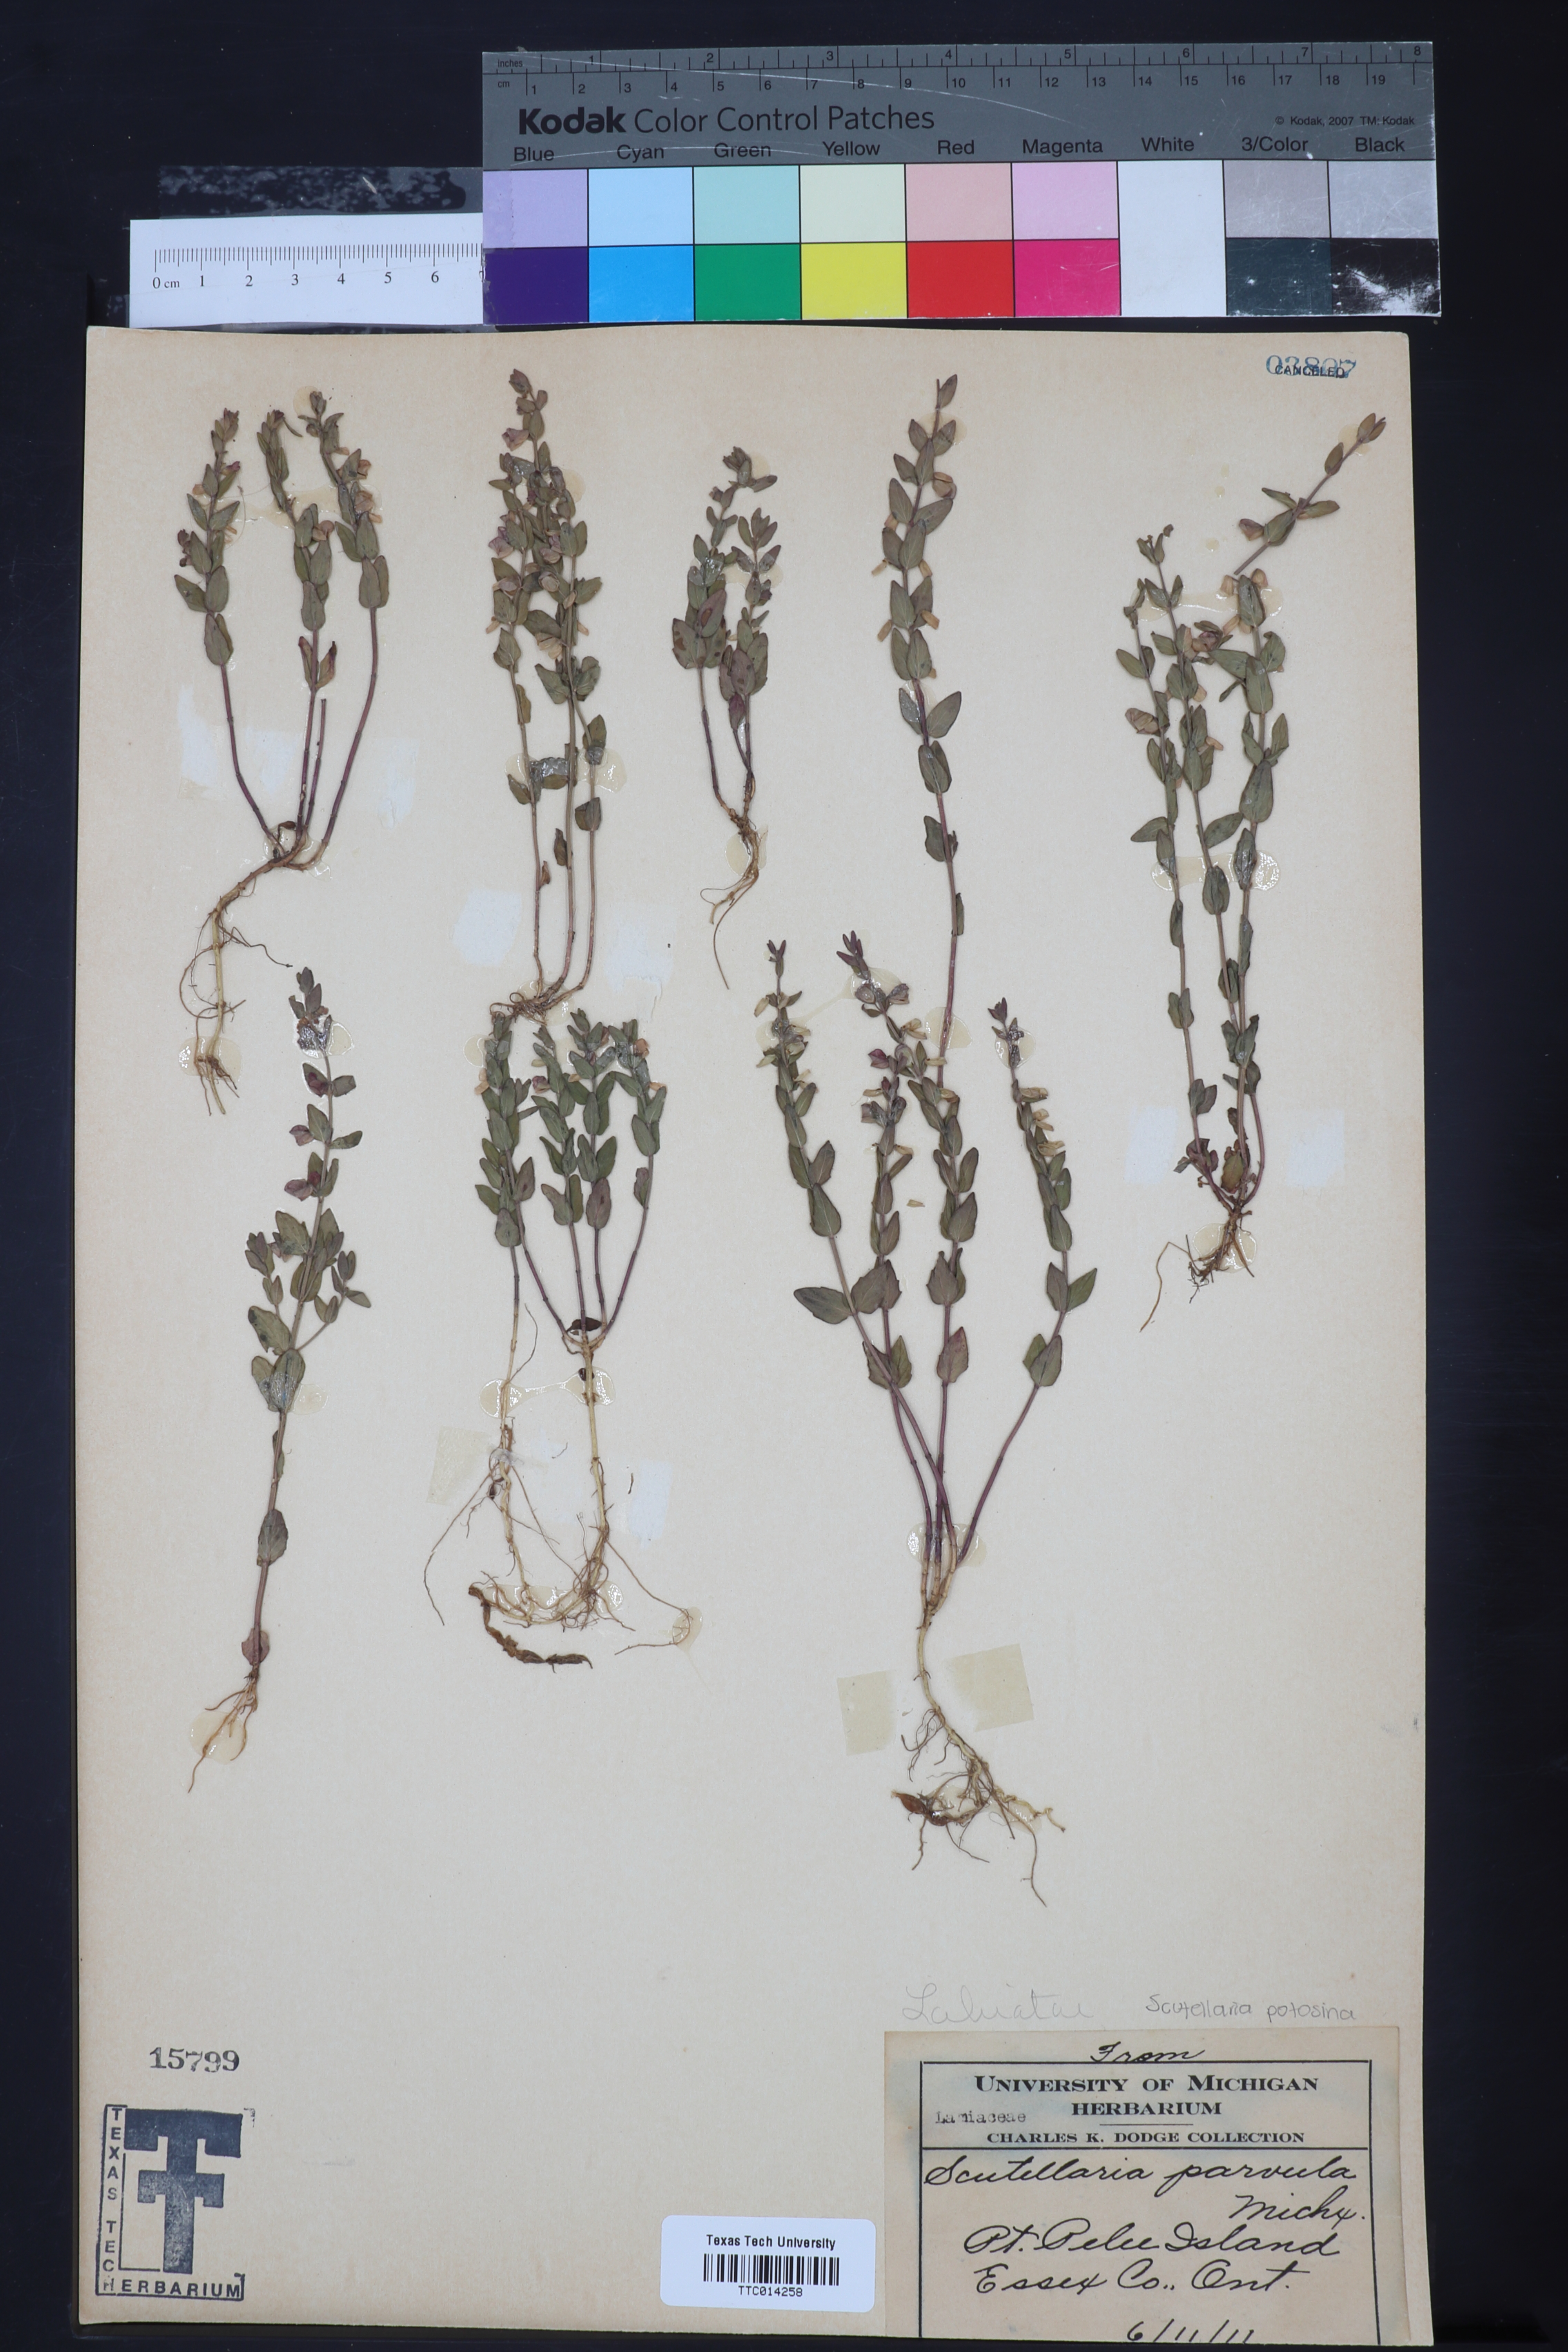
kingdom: Plantae
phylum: Tracheophyta
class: Magnoliopsida
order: Lamiales
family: Lamiaceae
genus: Scutellaria
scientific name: Scutellaria parvula
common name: Little scullcap
